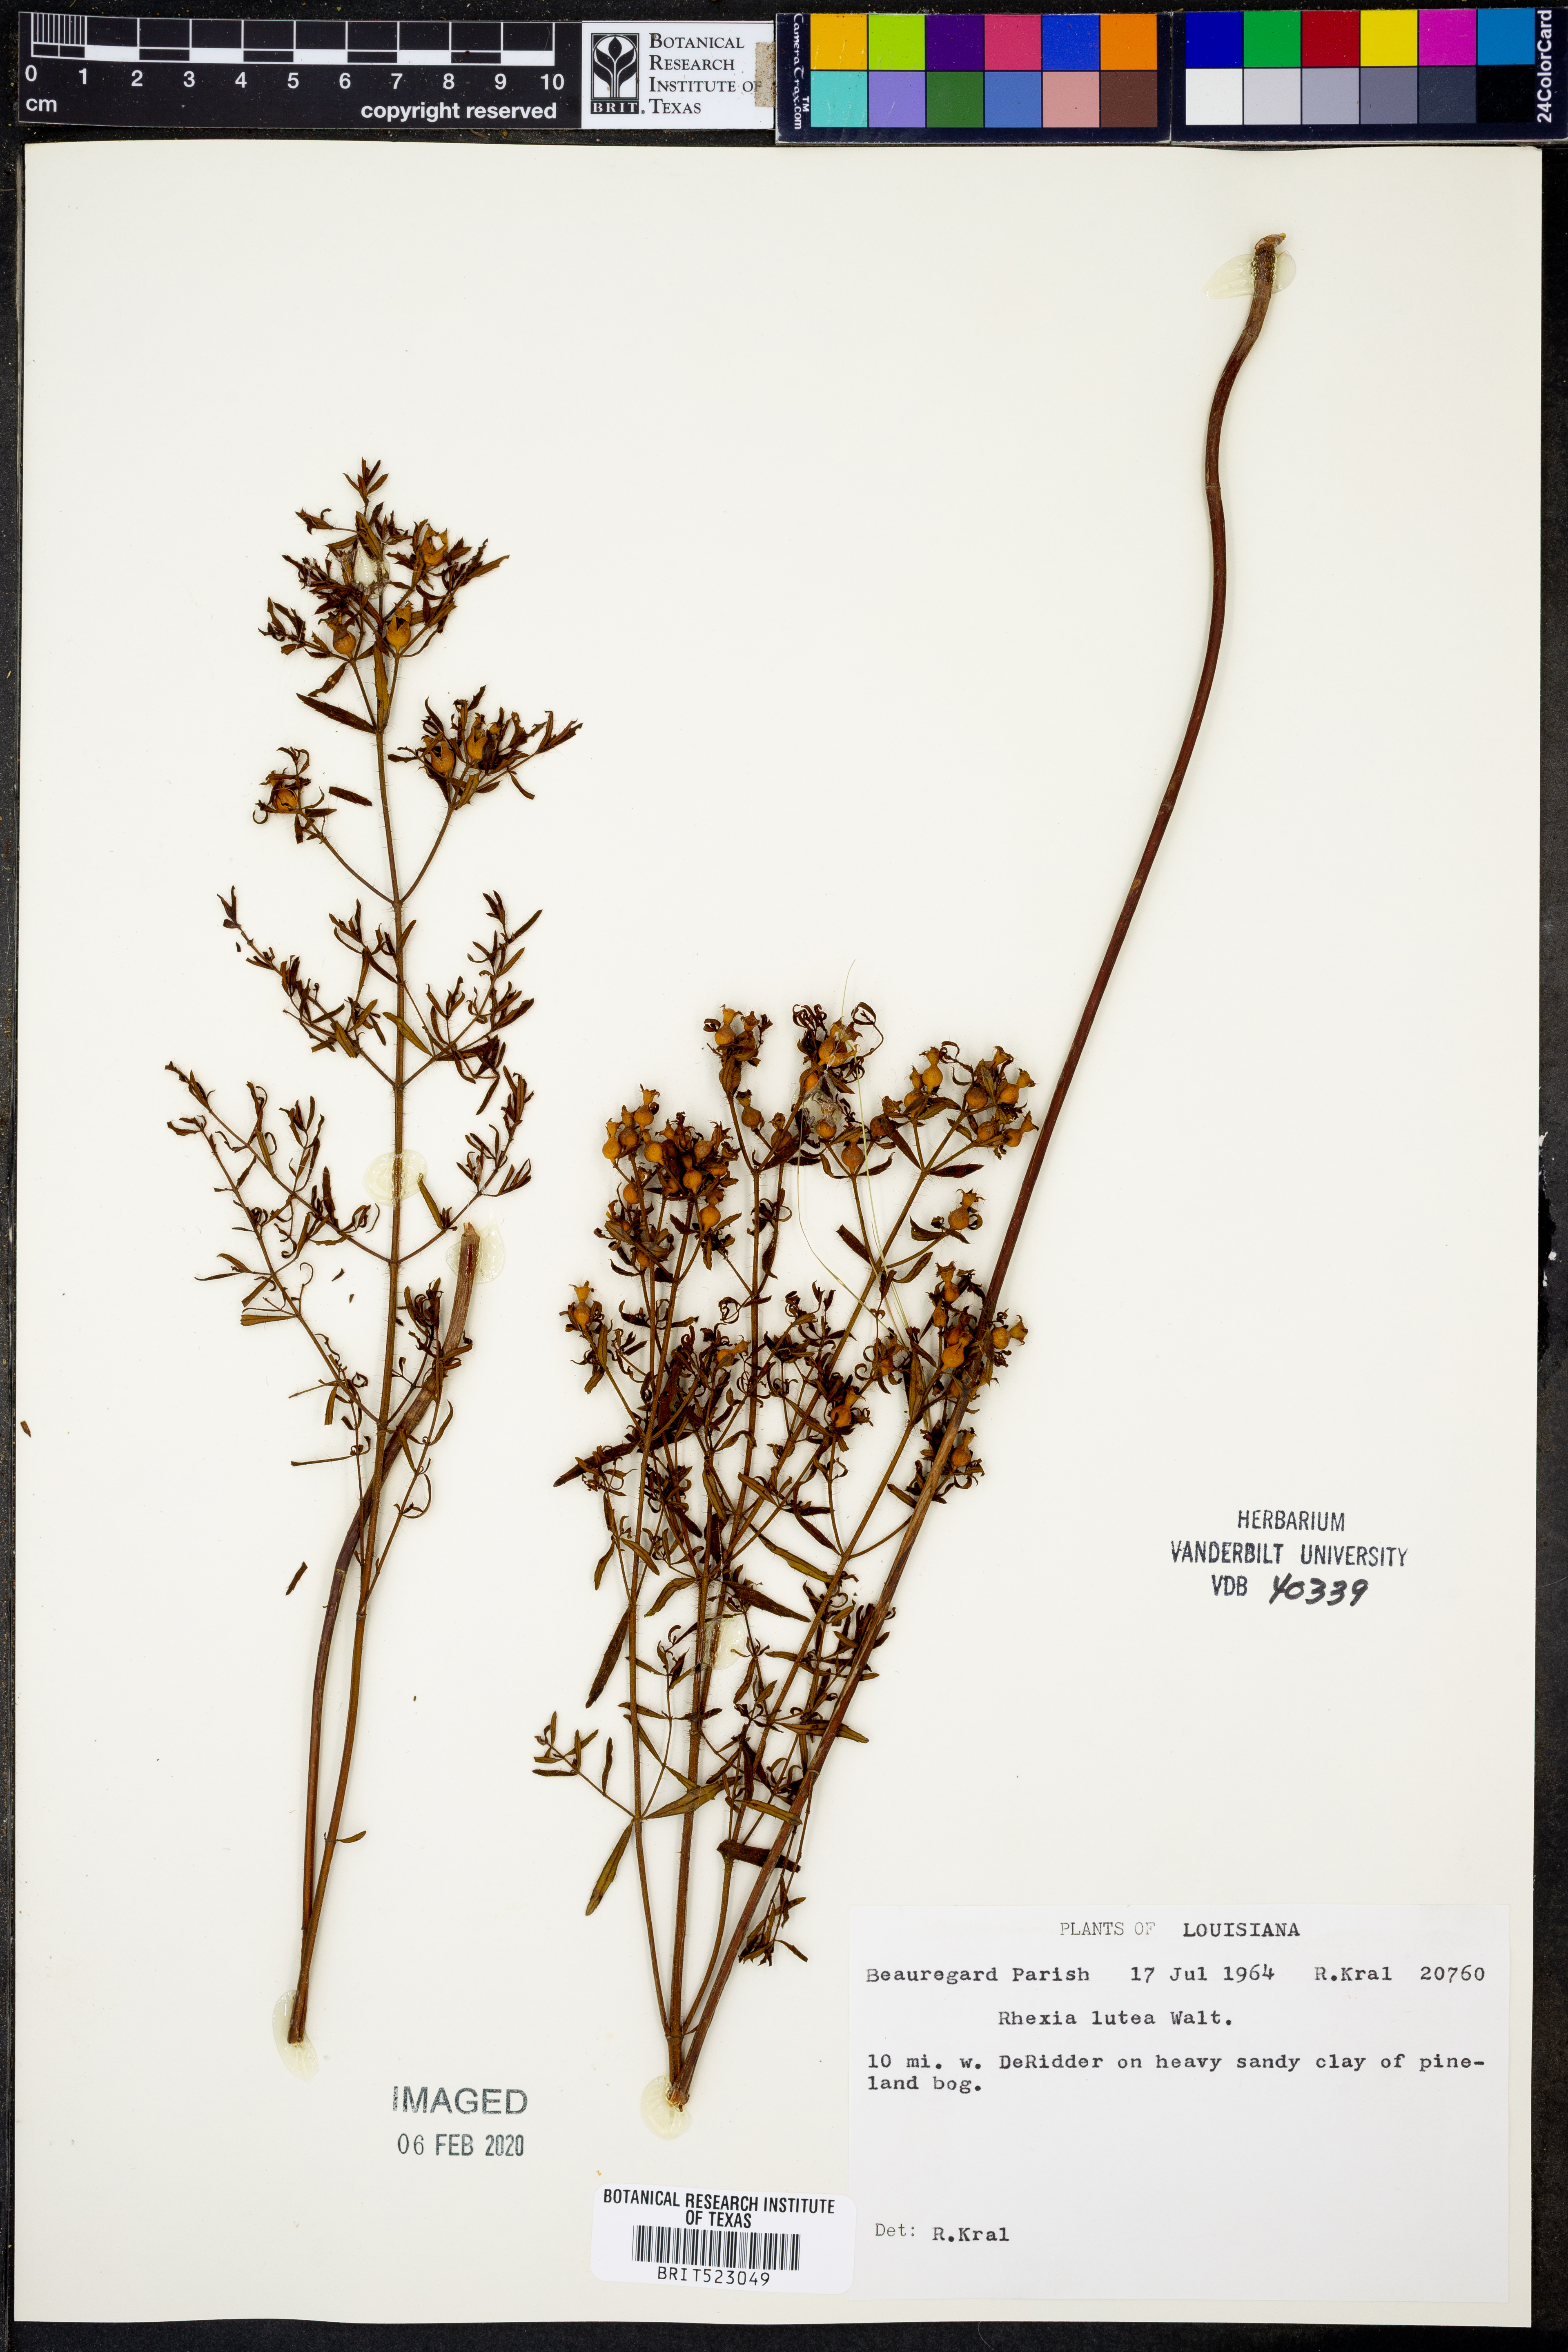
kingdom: Plantae
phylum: Tracheophyta
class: Magnoliopsida
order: Myrtales
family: Melastomataceae
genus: Rhexia
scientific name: Rhexia lutea
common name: Golden meadow-beauty
